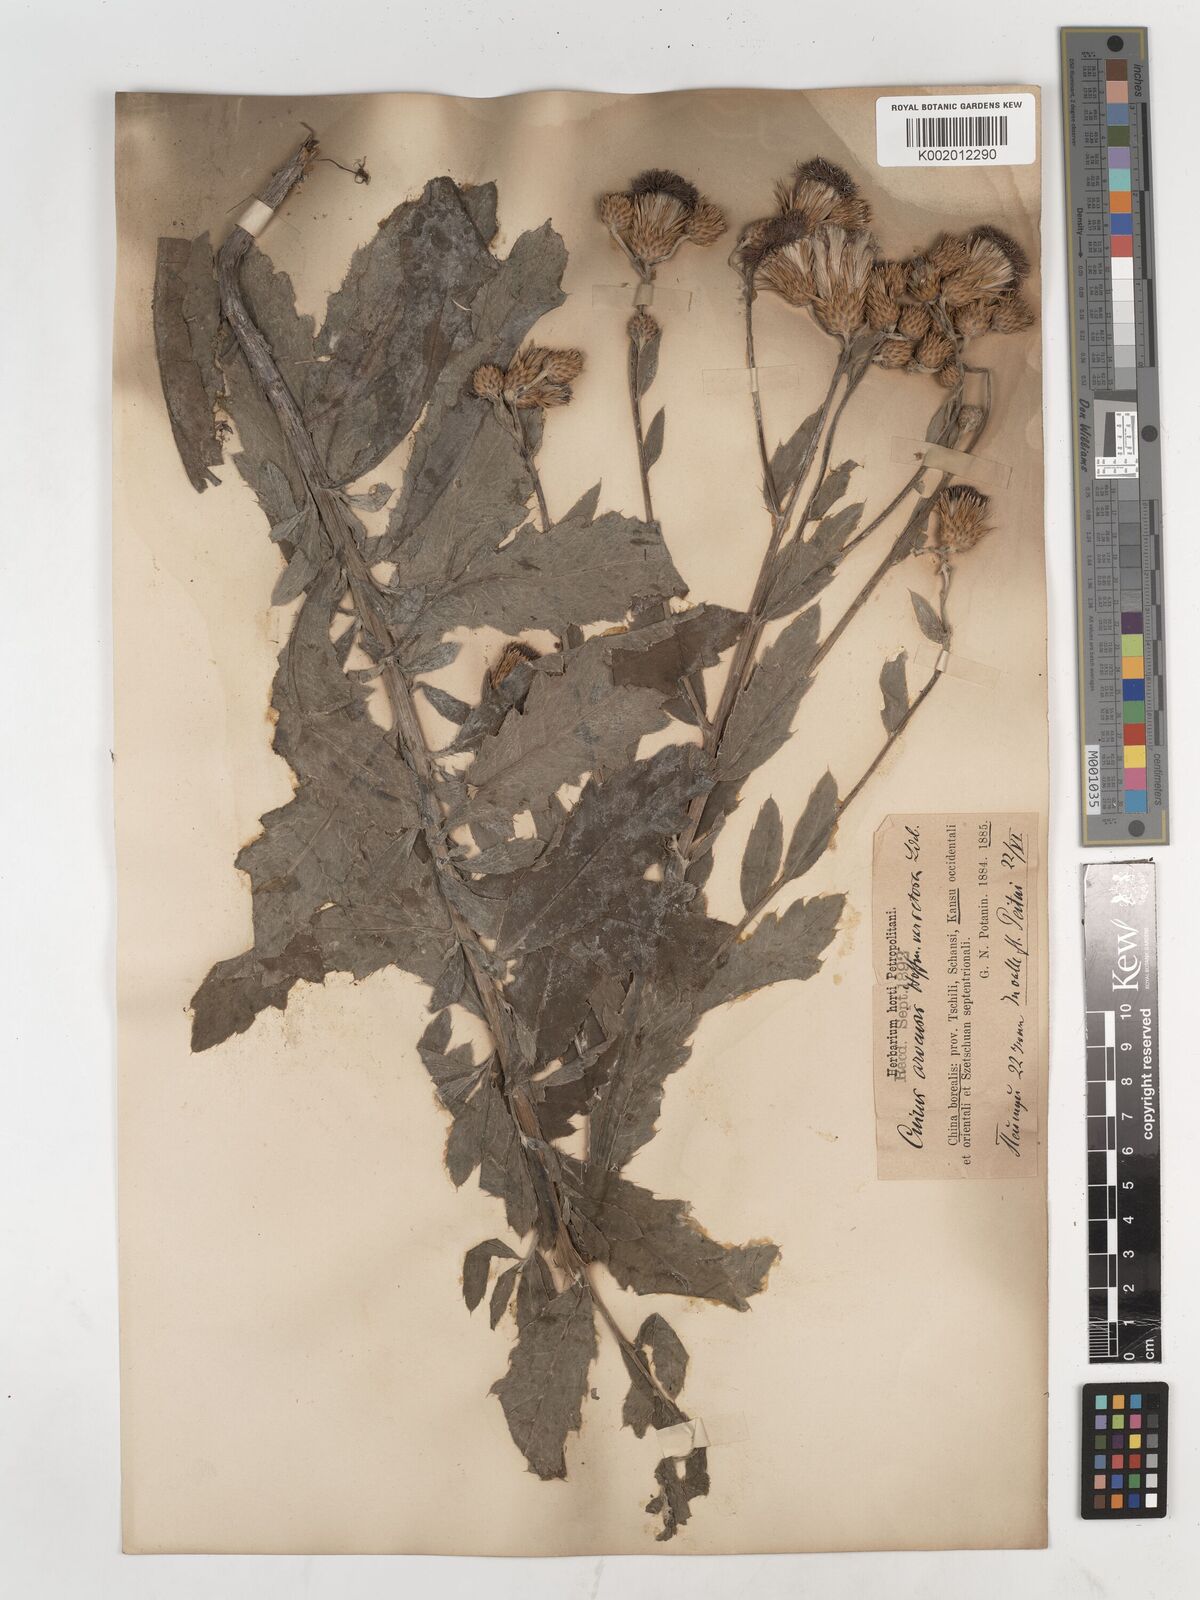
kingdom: Plantae
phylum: Tracheophyta
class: Magnoliopsida
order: Asterales
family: Asteraceae
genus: Cirsium
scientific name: Cirsium arvense
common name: Creeping thistle
